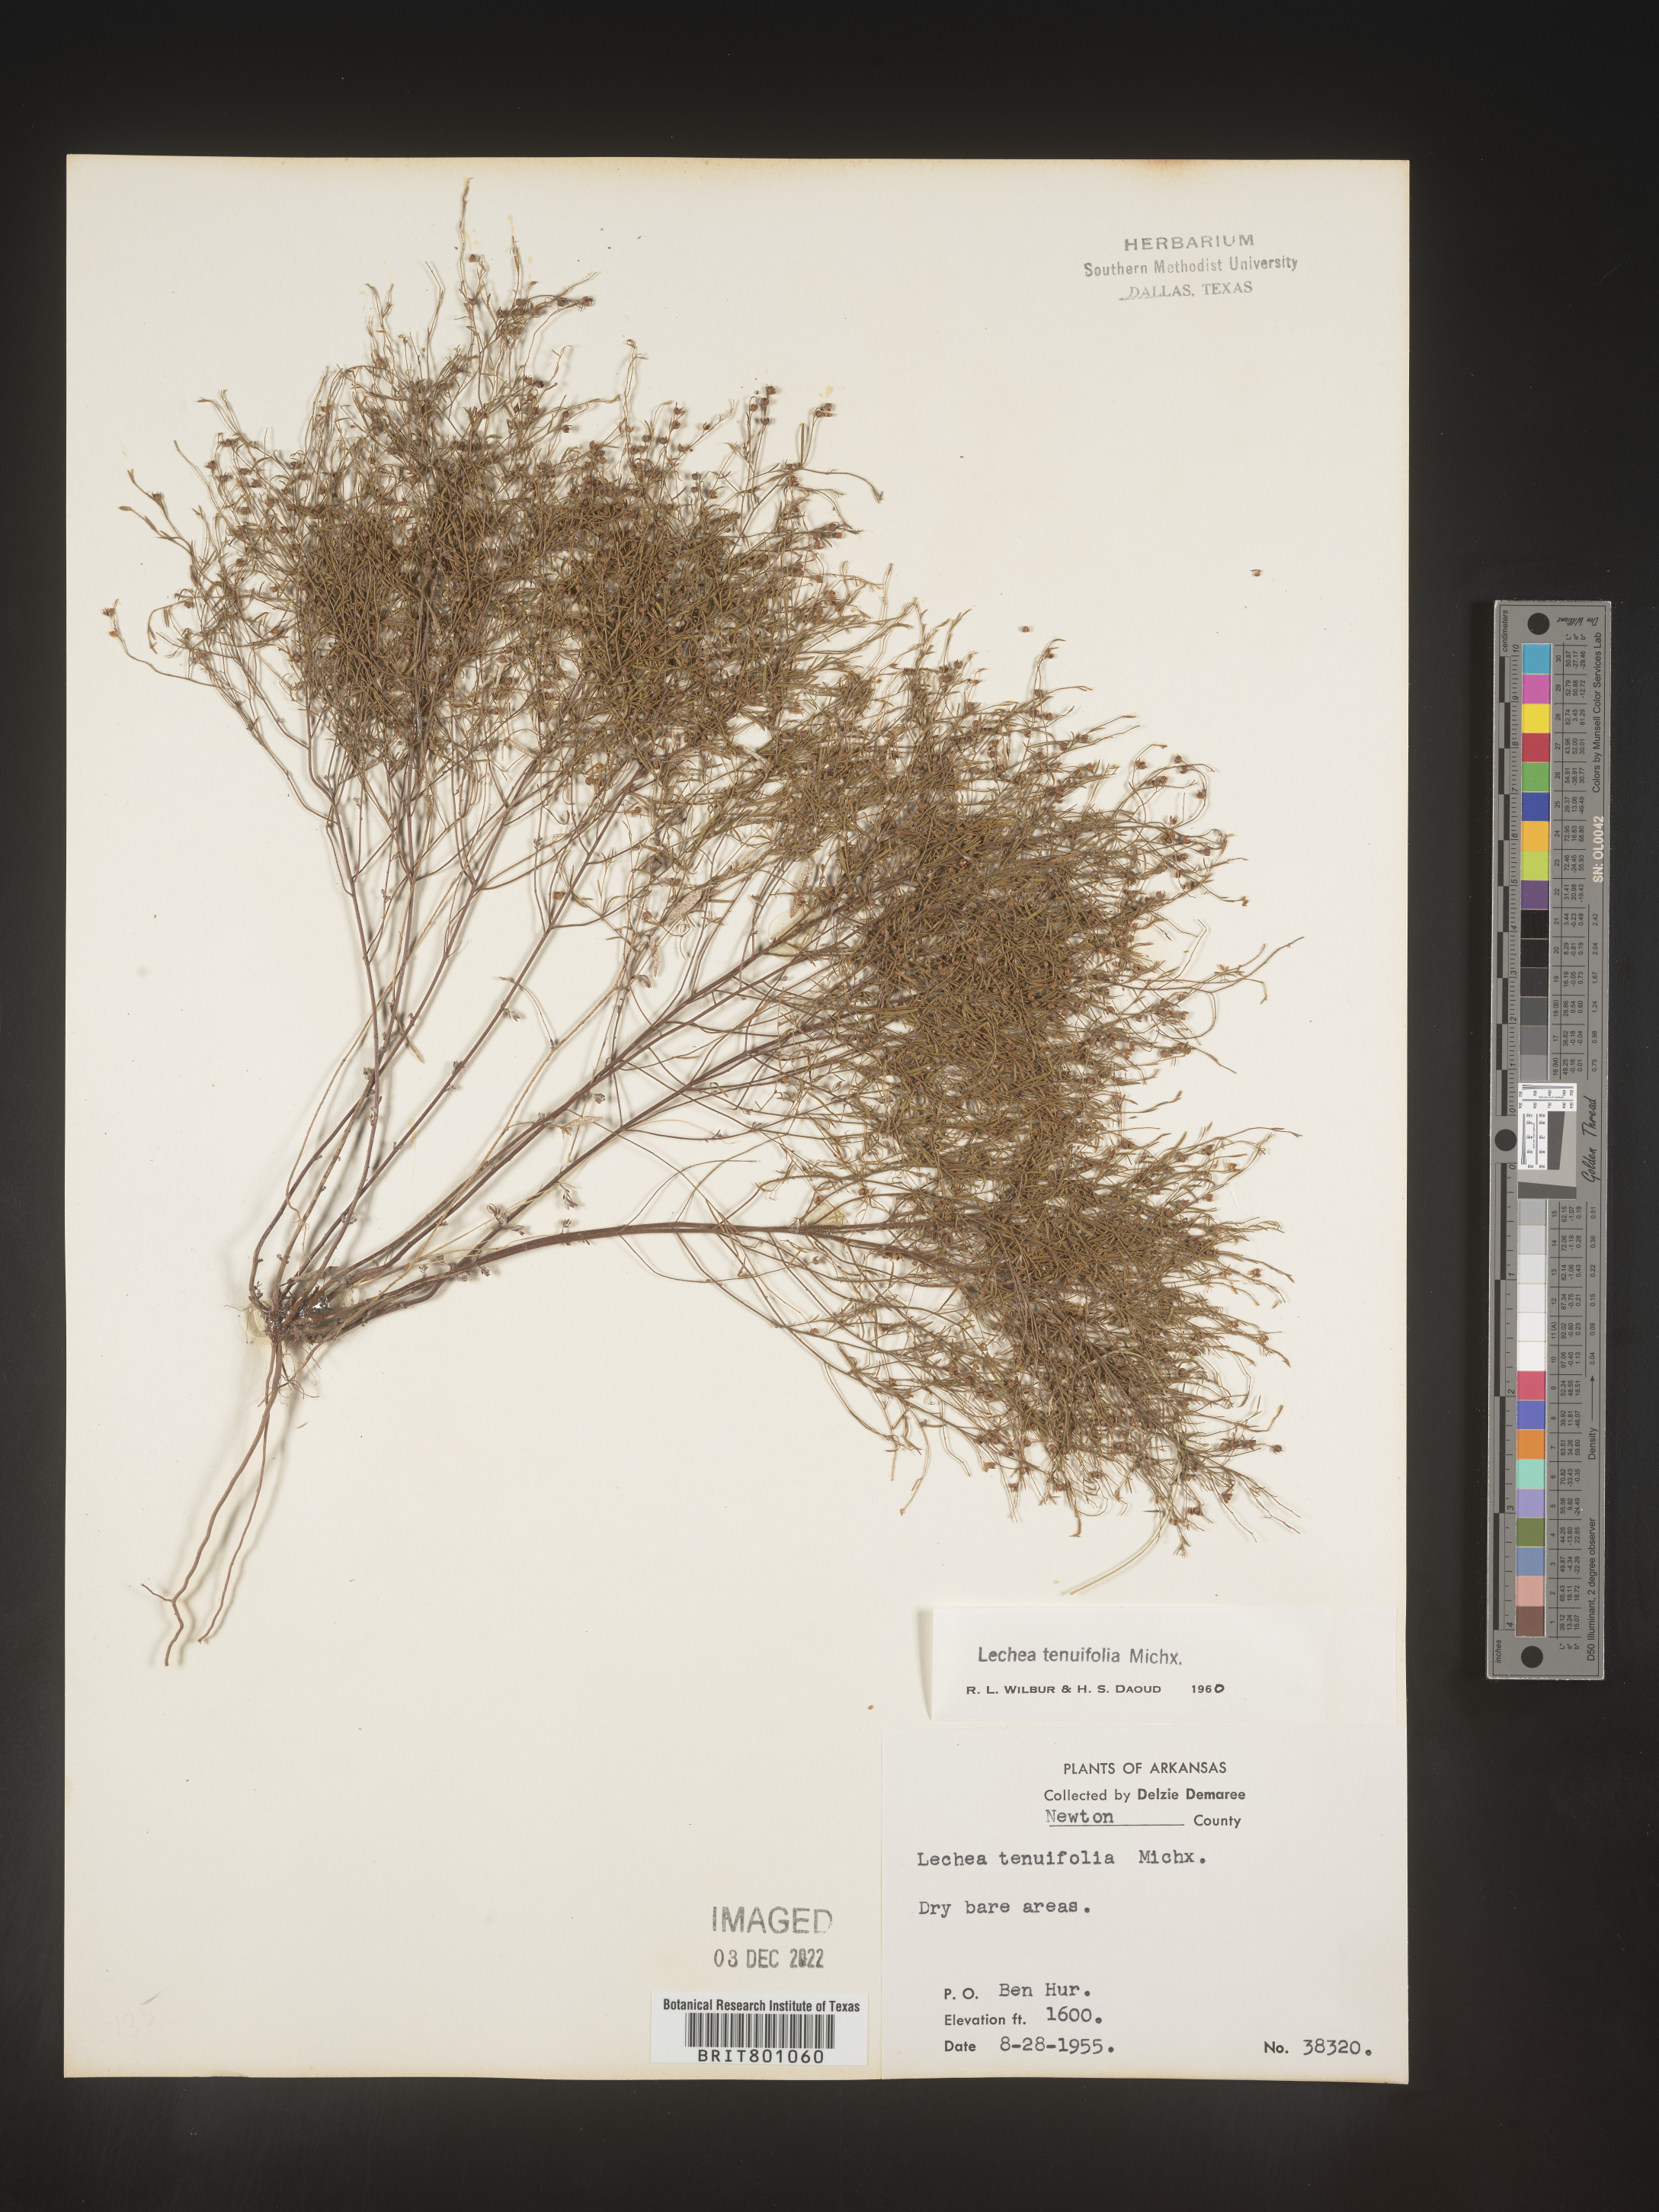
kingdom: Plantae
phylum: Tracheophyta
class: Magnoliopsida
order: Malvales
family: Cistaceae
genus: Lechea
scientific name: Lechea tenuifolia
